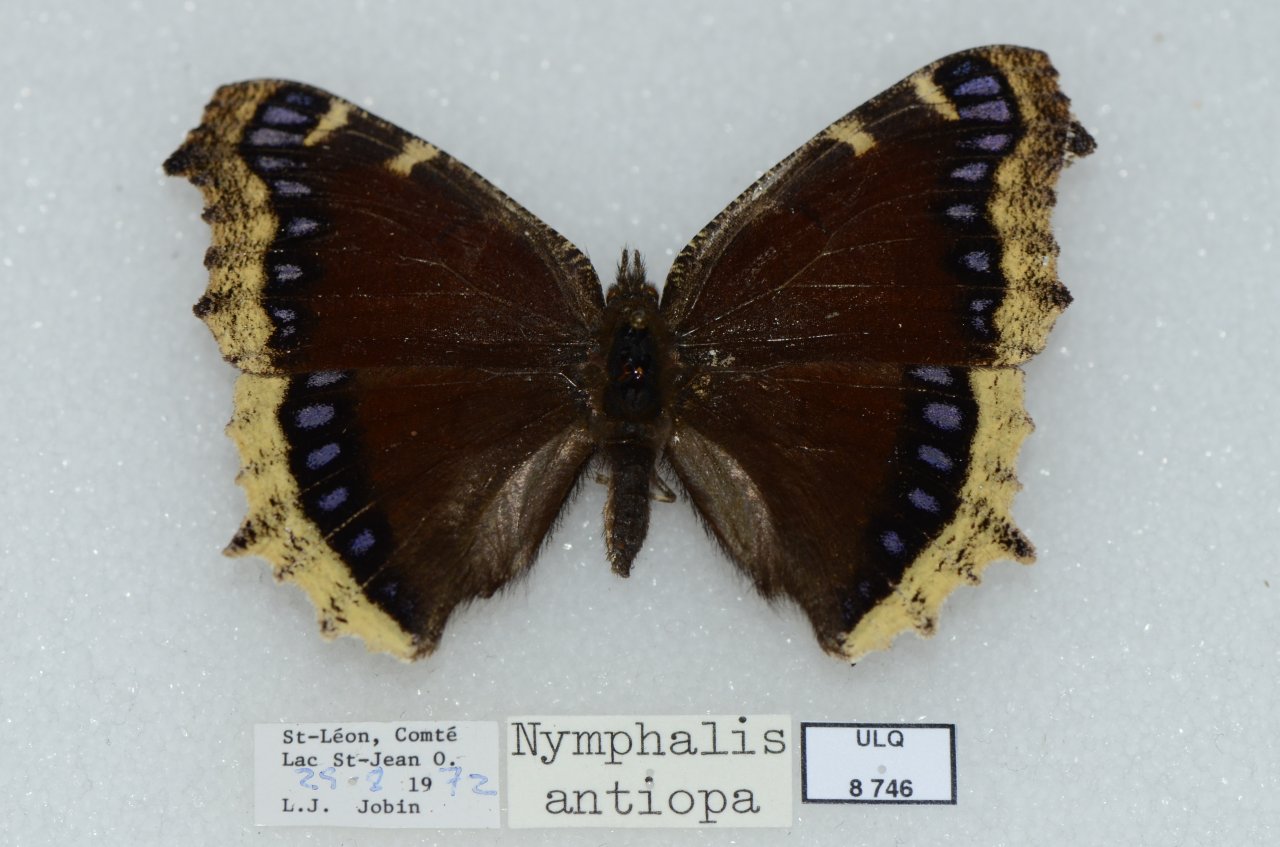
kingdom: Animalia
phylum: Arthropoda
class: Insecta
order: Lepidoptera
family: Nymphalidae
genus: Nymphalis
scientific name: Nymphalis antiopa
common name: Mourning Cloak
